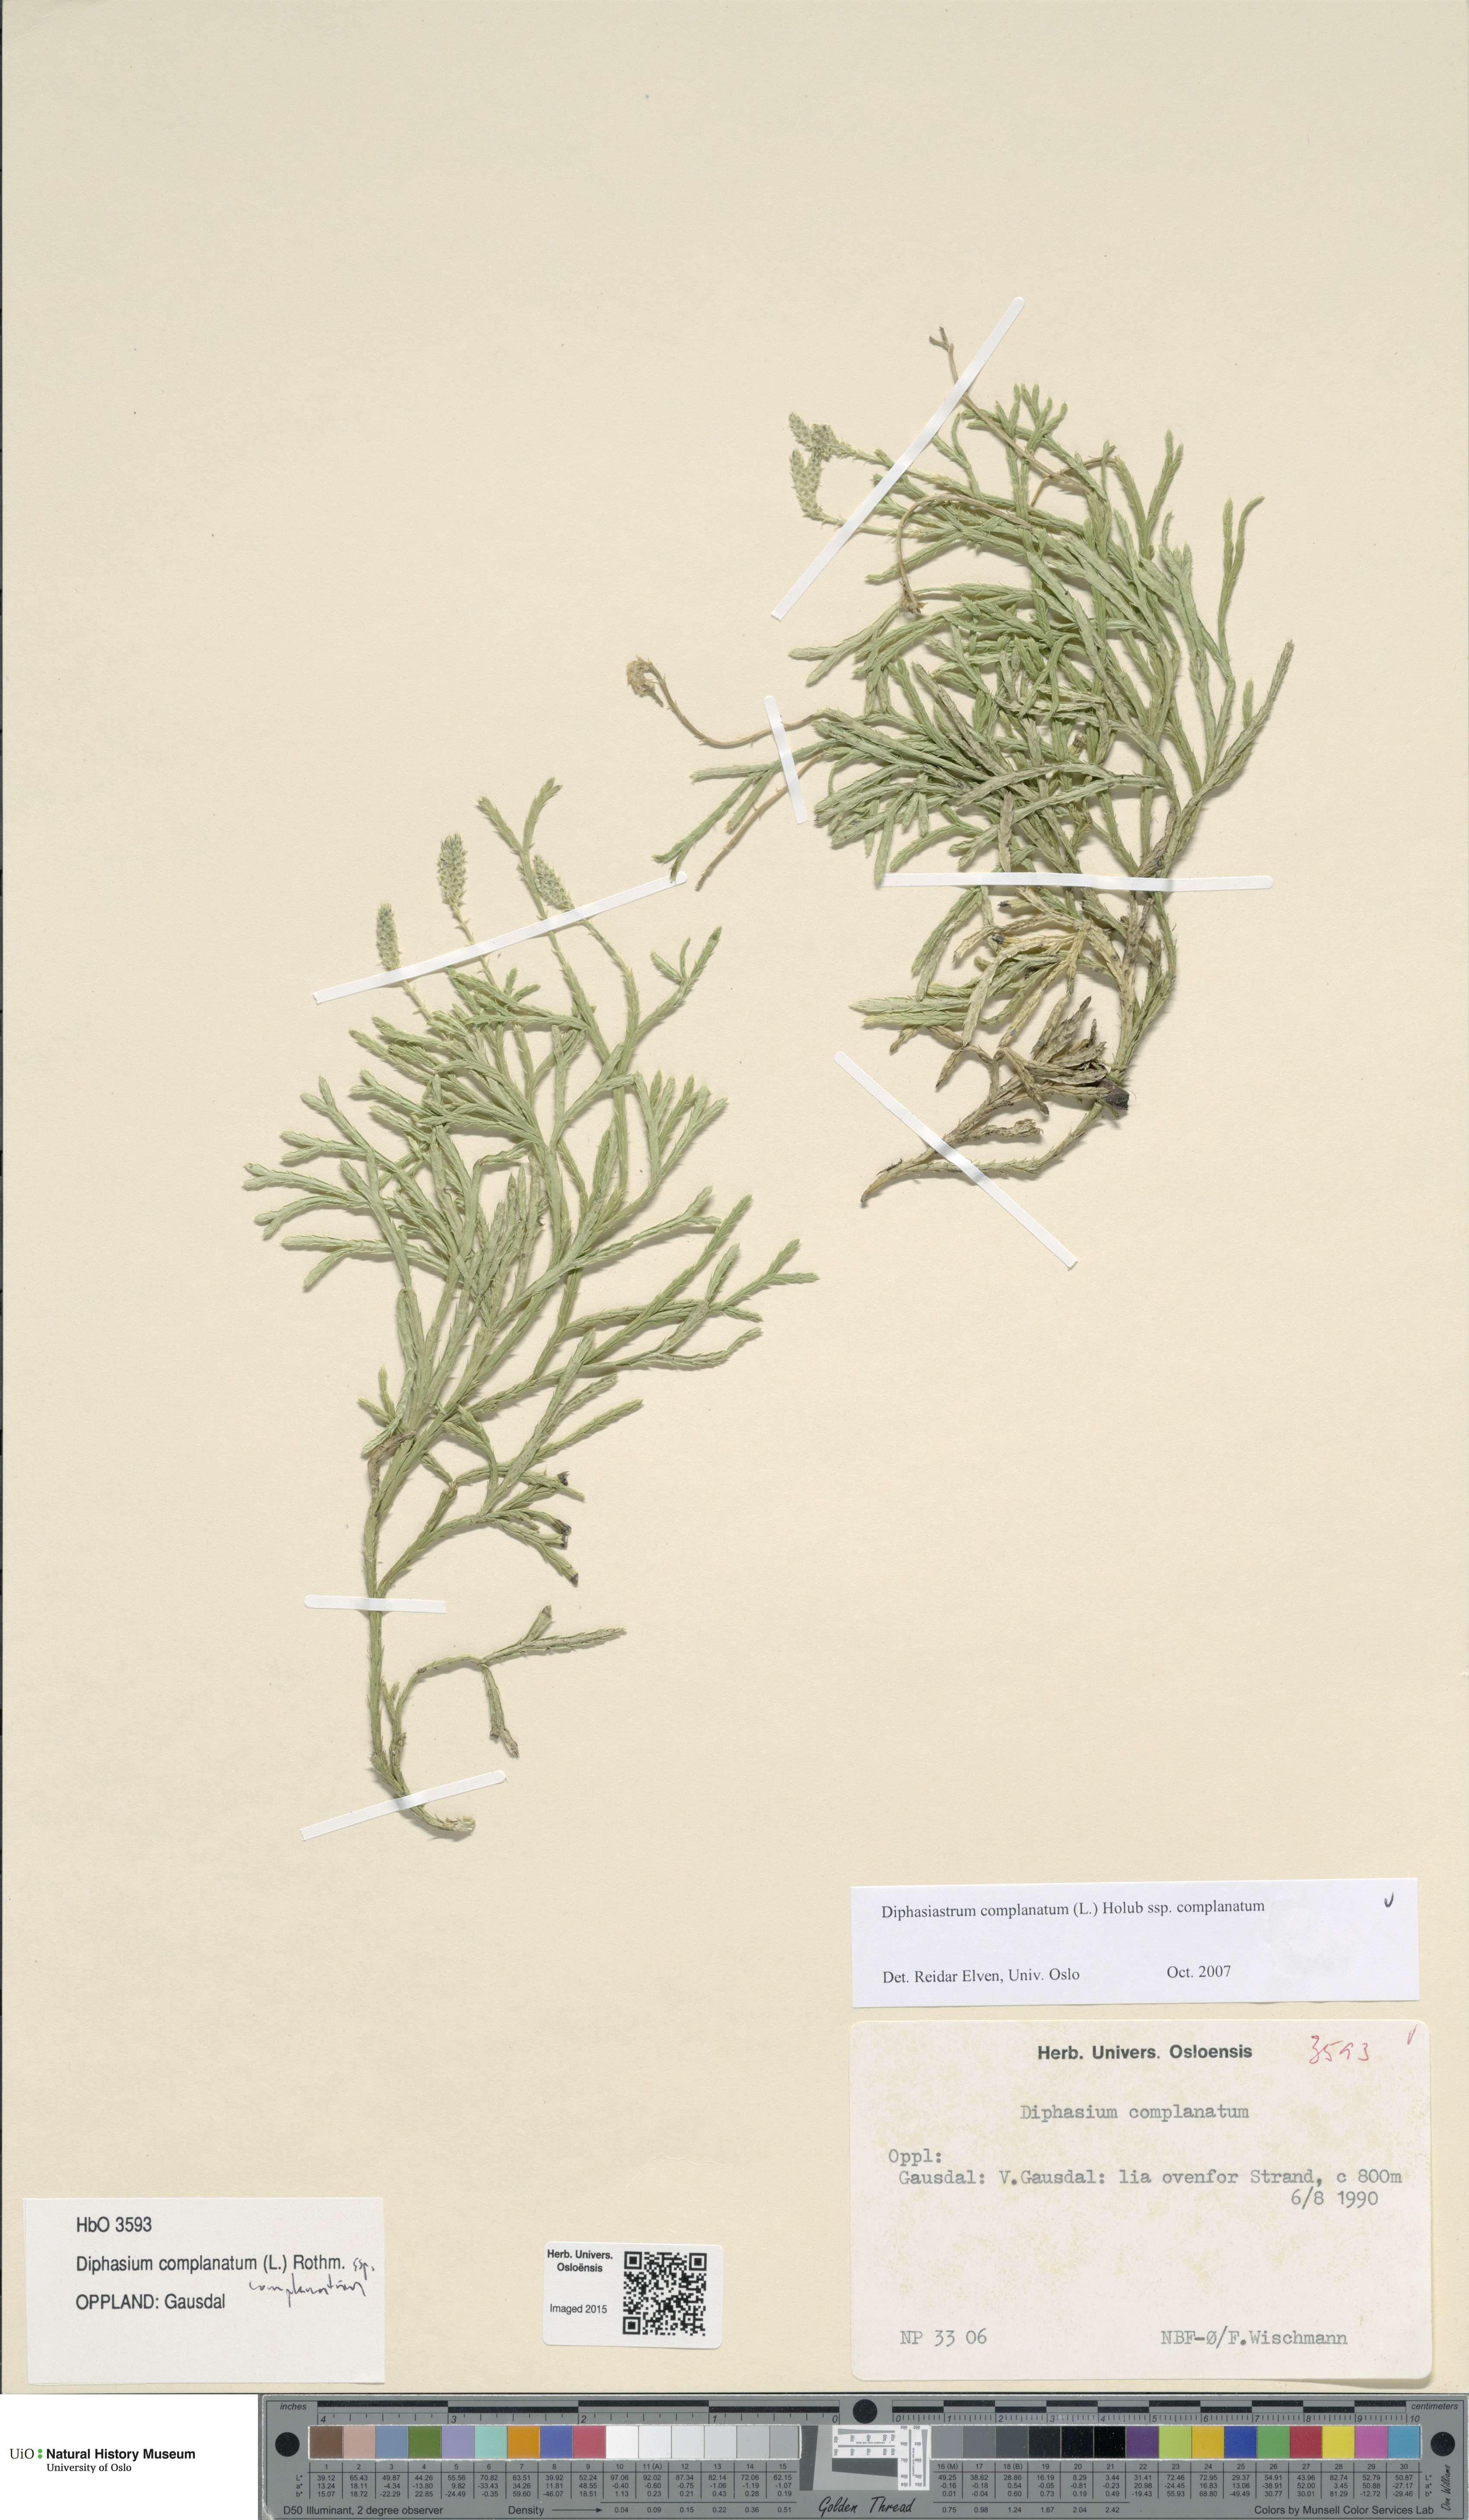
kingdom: Plantae
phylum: Tracheophyta
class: Lycopodiopsida
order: Lycopodiales
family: Lycopodiaceae
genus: Diphasiastrum
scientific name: Diphasiastrum complanatum
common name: Northern running-pine
